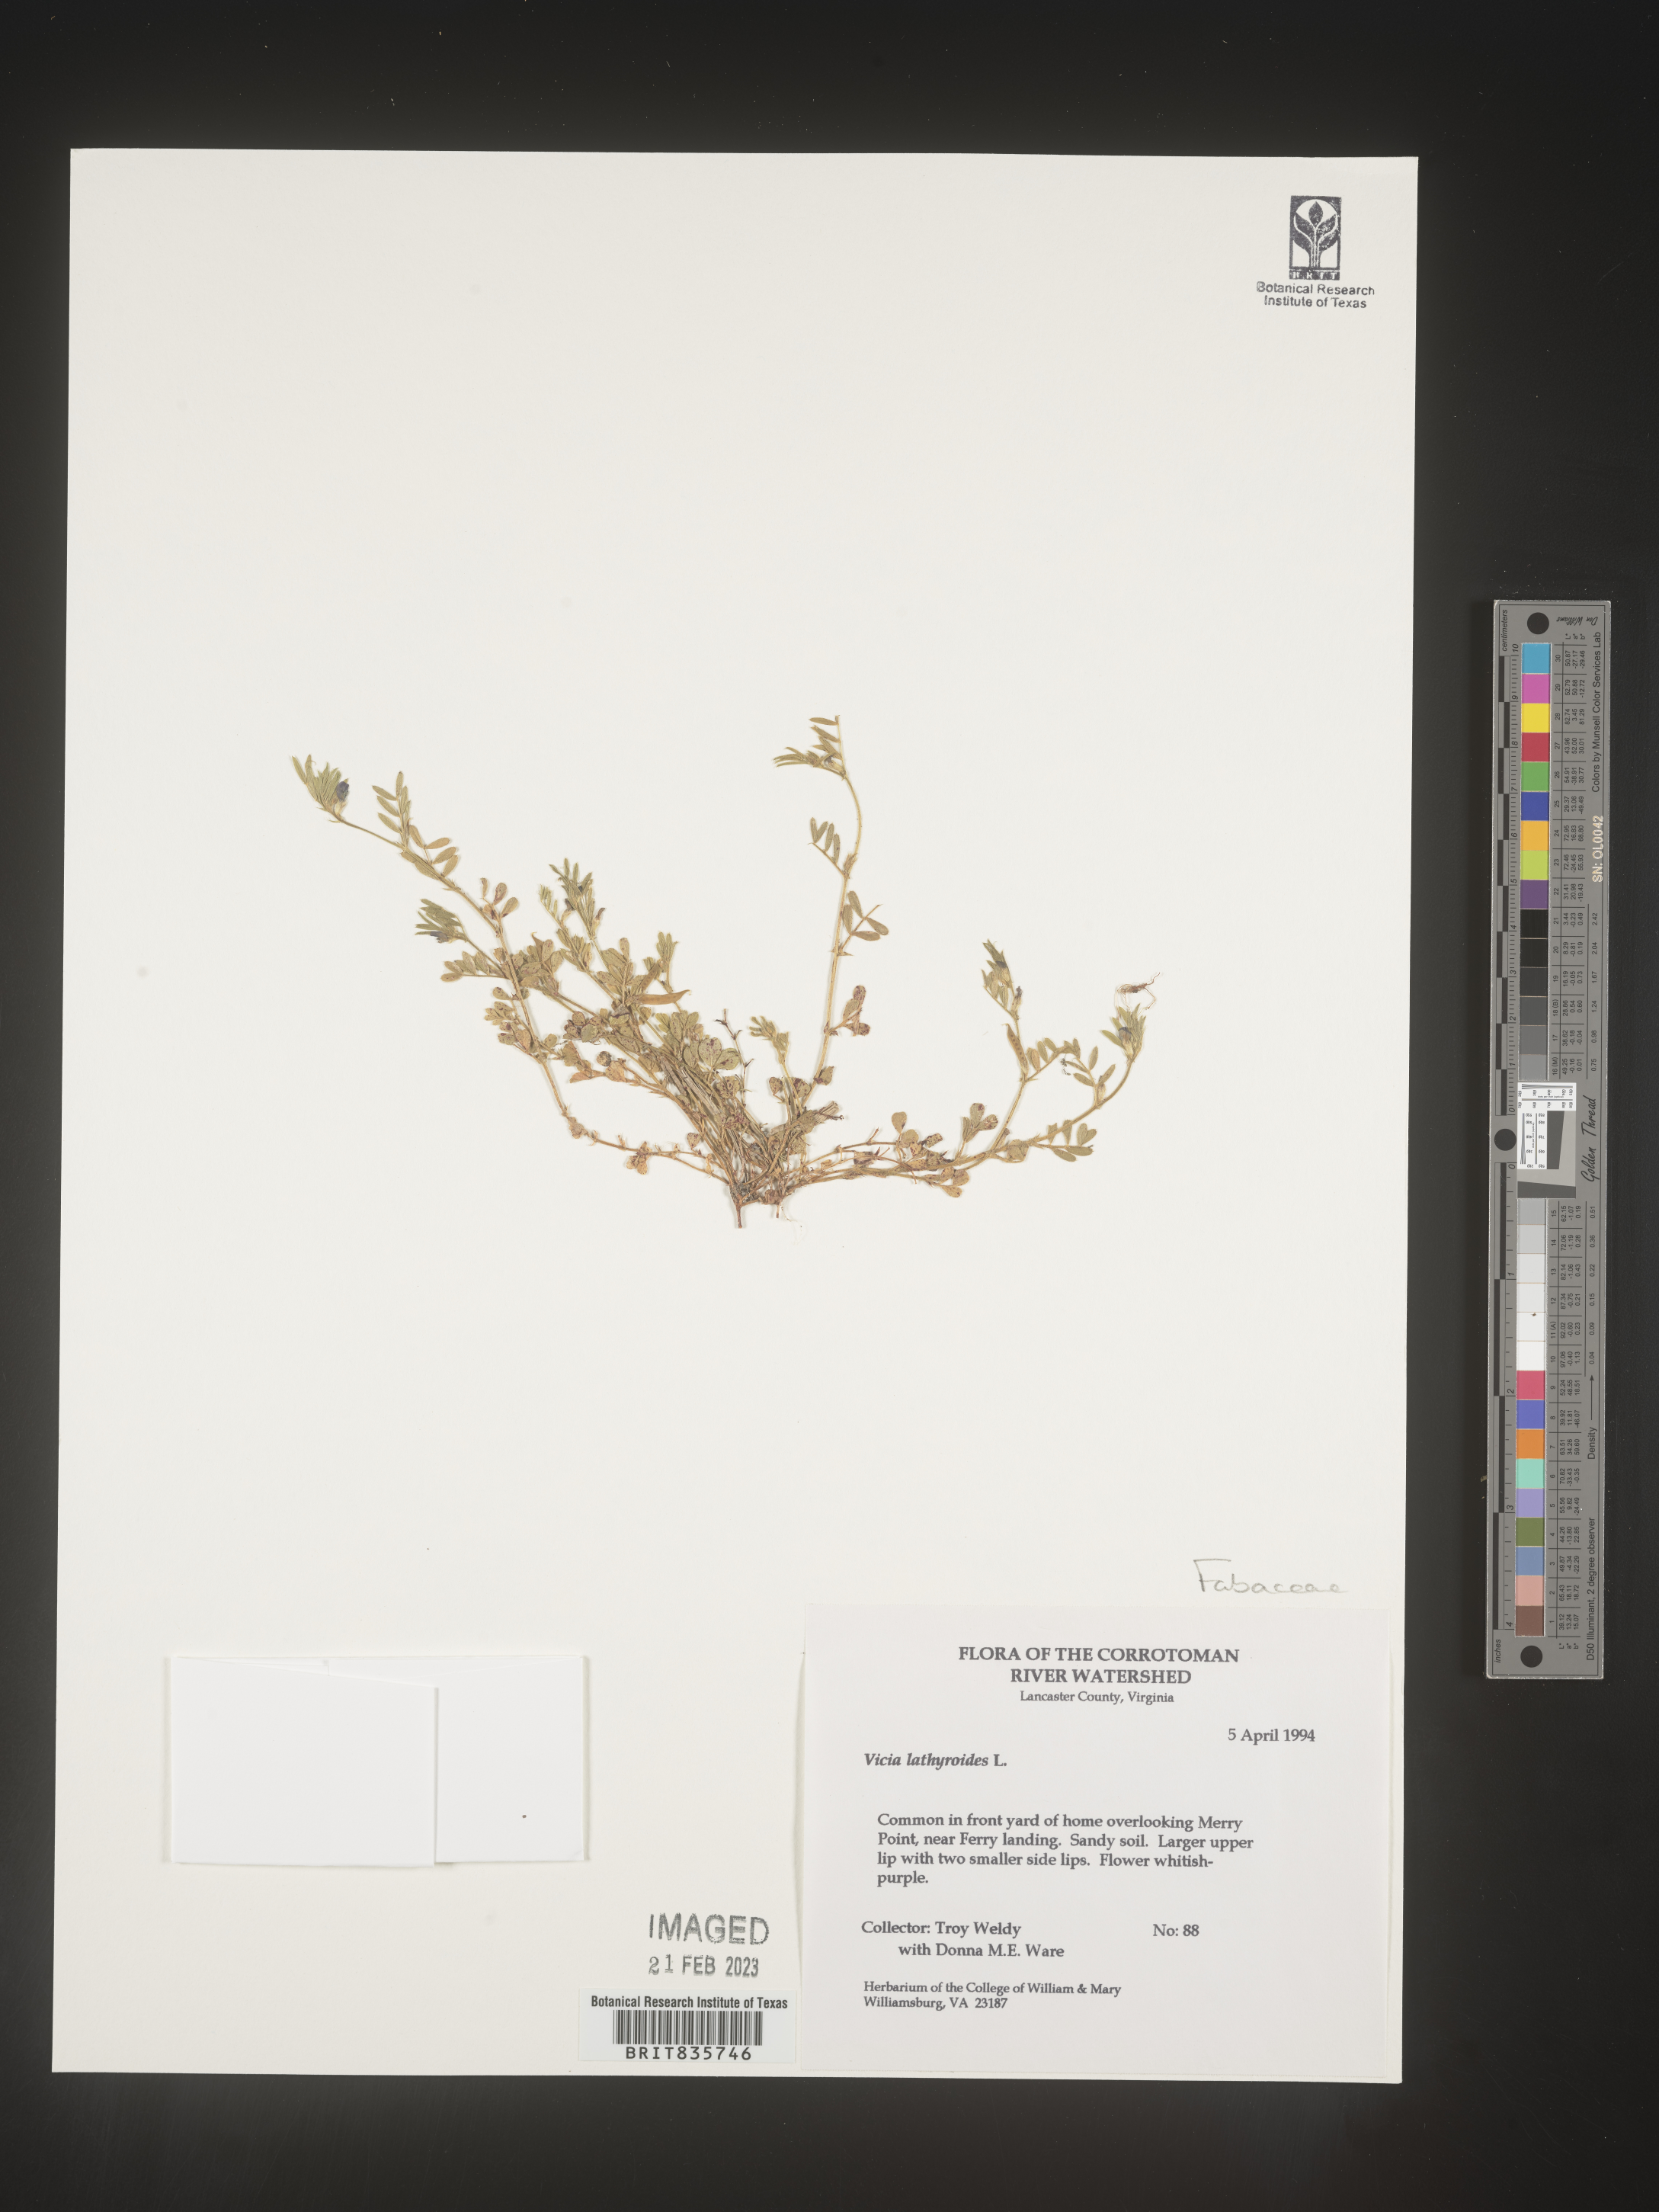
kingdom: Plantae
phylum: Tracheophyta
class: Magnoliopsida
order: Fabales
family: Fabaceae
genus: Vicia
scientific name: Vicia
